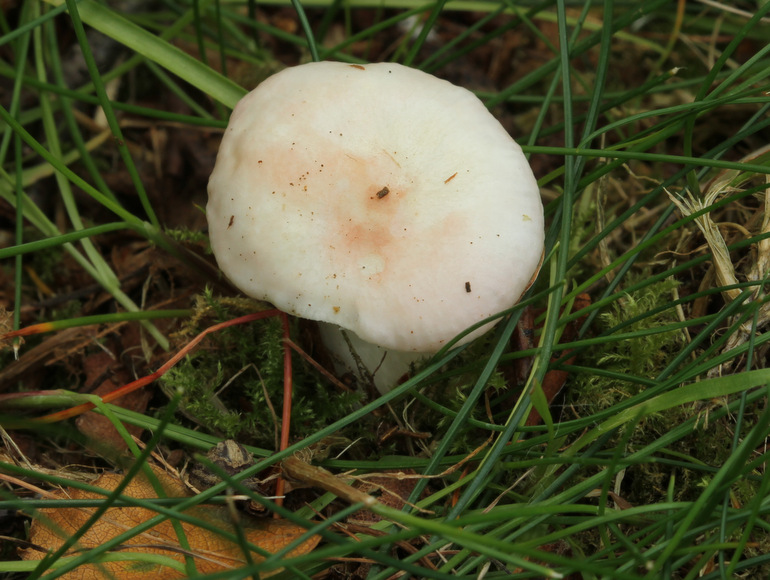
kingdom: Fungi
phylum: Basidiomycota
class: Agaricomycetes
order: Russulales
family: Russulaceae
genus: Russula
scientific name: Russula betularum
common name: bleg gift-skørhat
